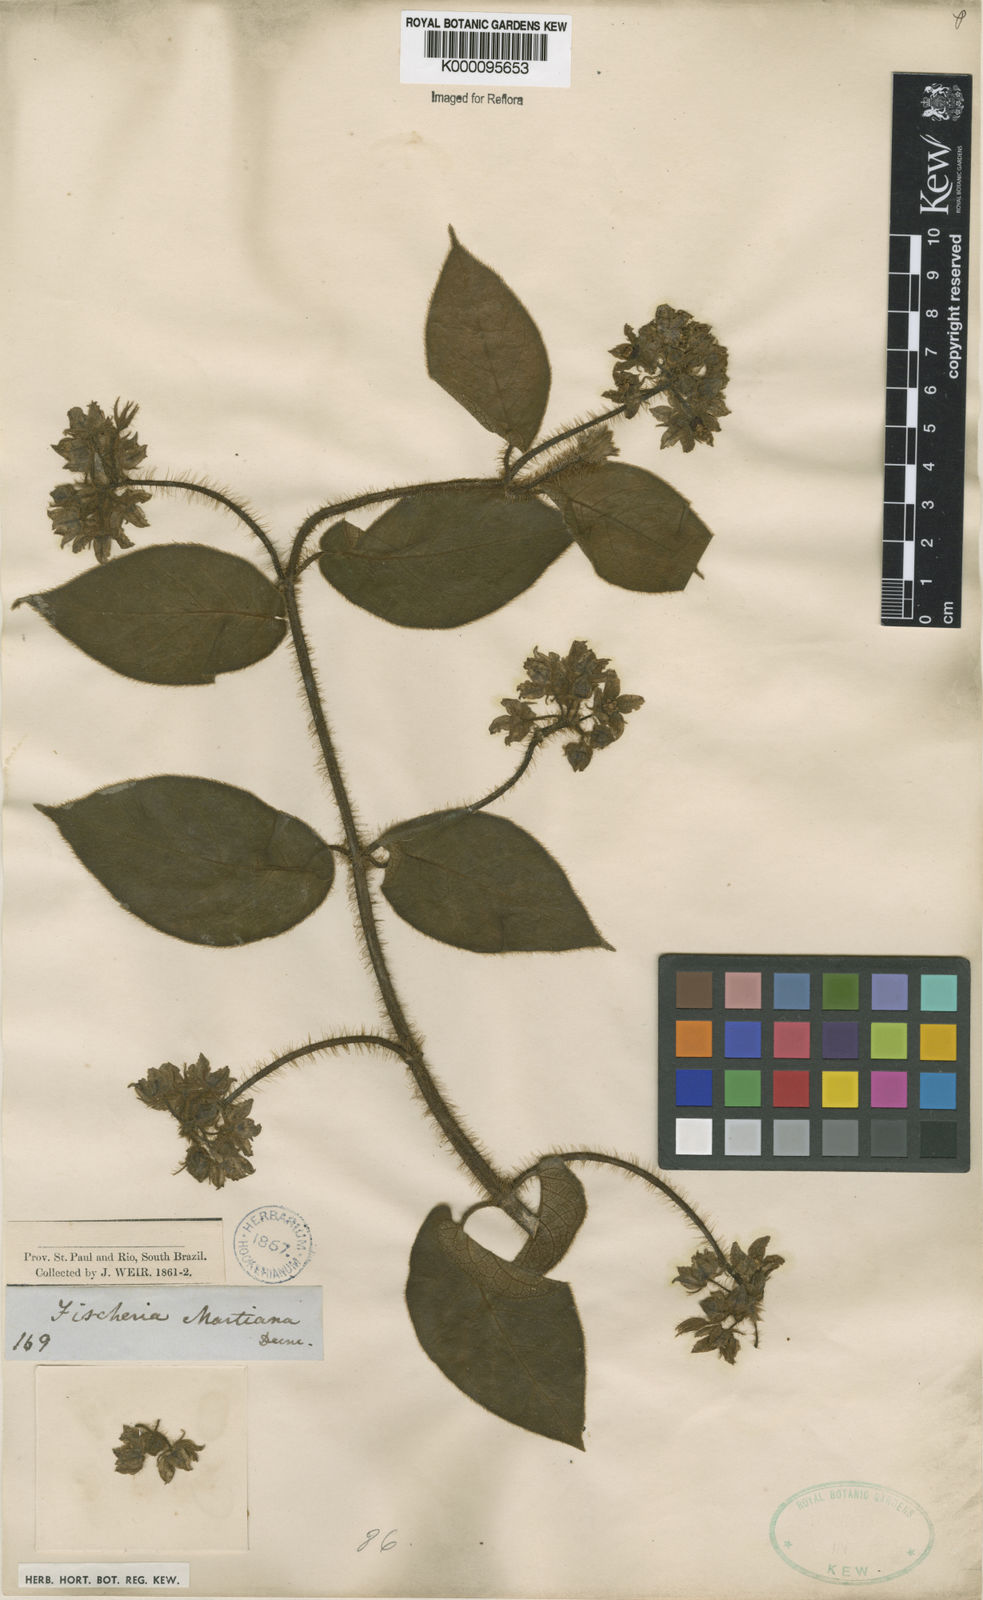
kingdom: Plantae
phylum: Tracheophyta
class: Magnoliopsida
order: Gentianales
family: Apocynaceae
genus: Fischeria
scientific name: Fischeria stellata
